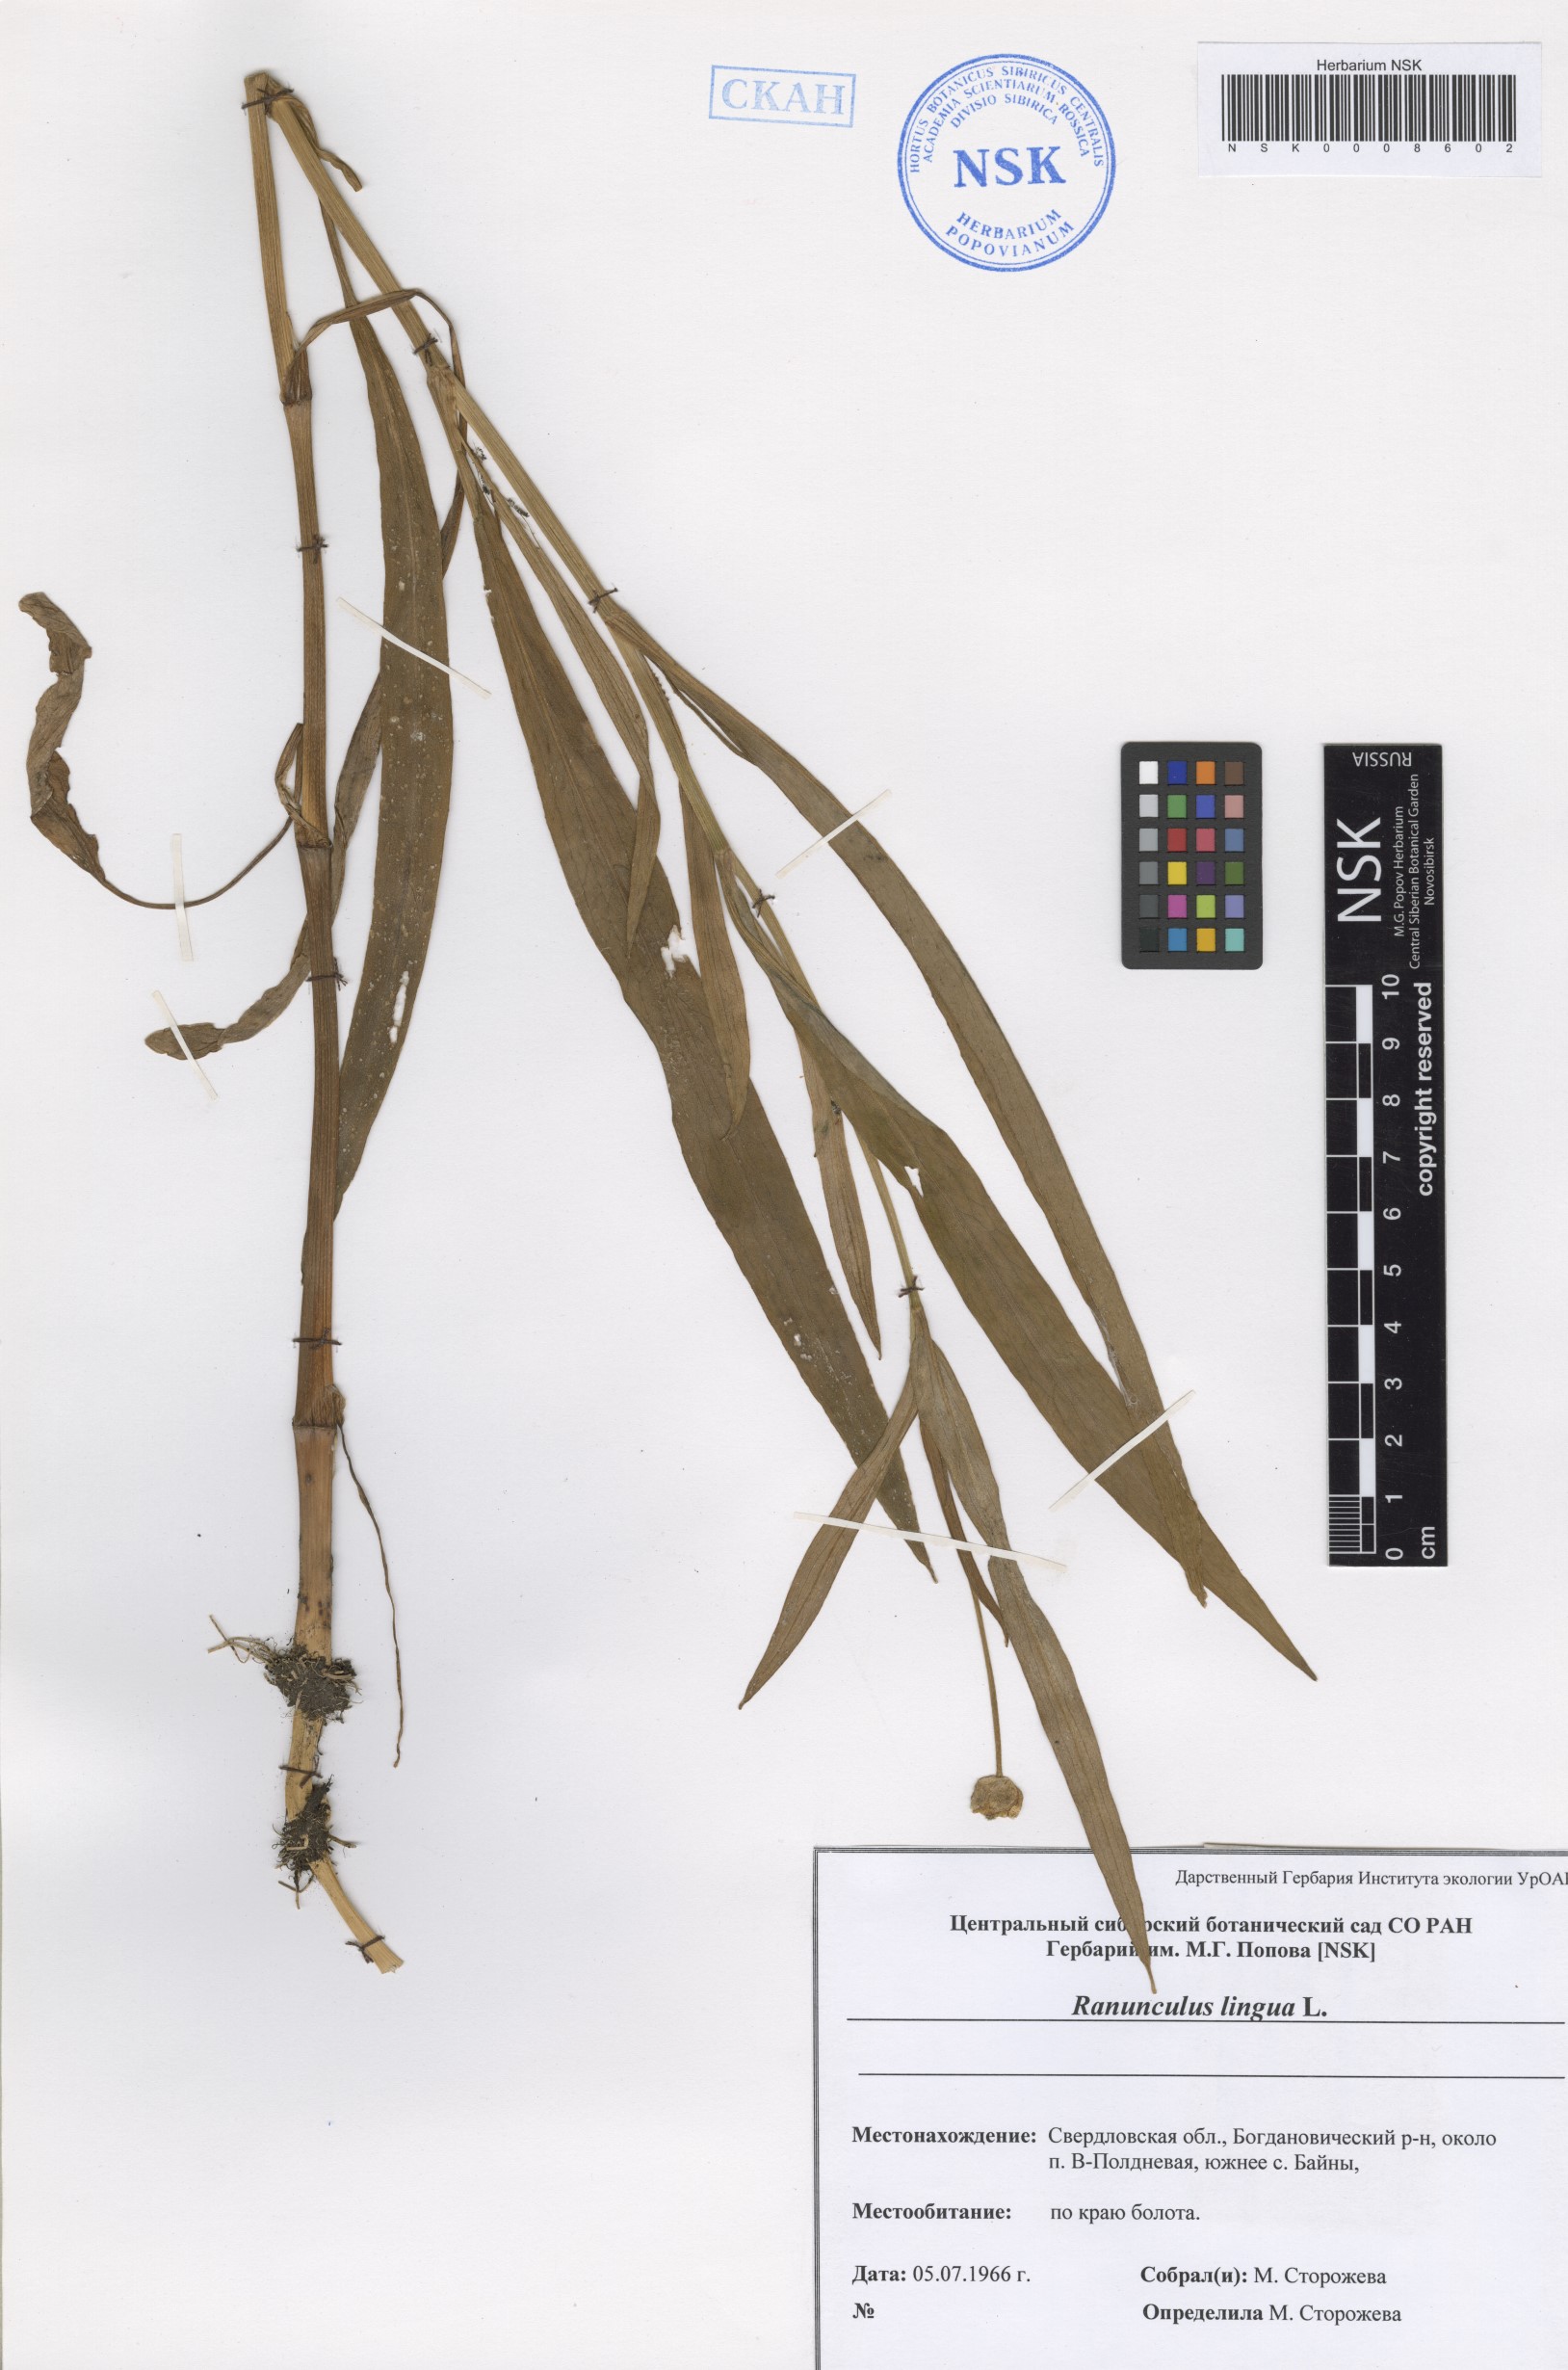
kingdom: Plantae
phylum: Tracheophyta
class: Magnoliopsida
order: Ranunculales
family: Ranunculaceae
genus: Ranunculus
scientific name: Ranunculus lingua
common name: Greater spearwort
